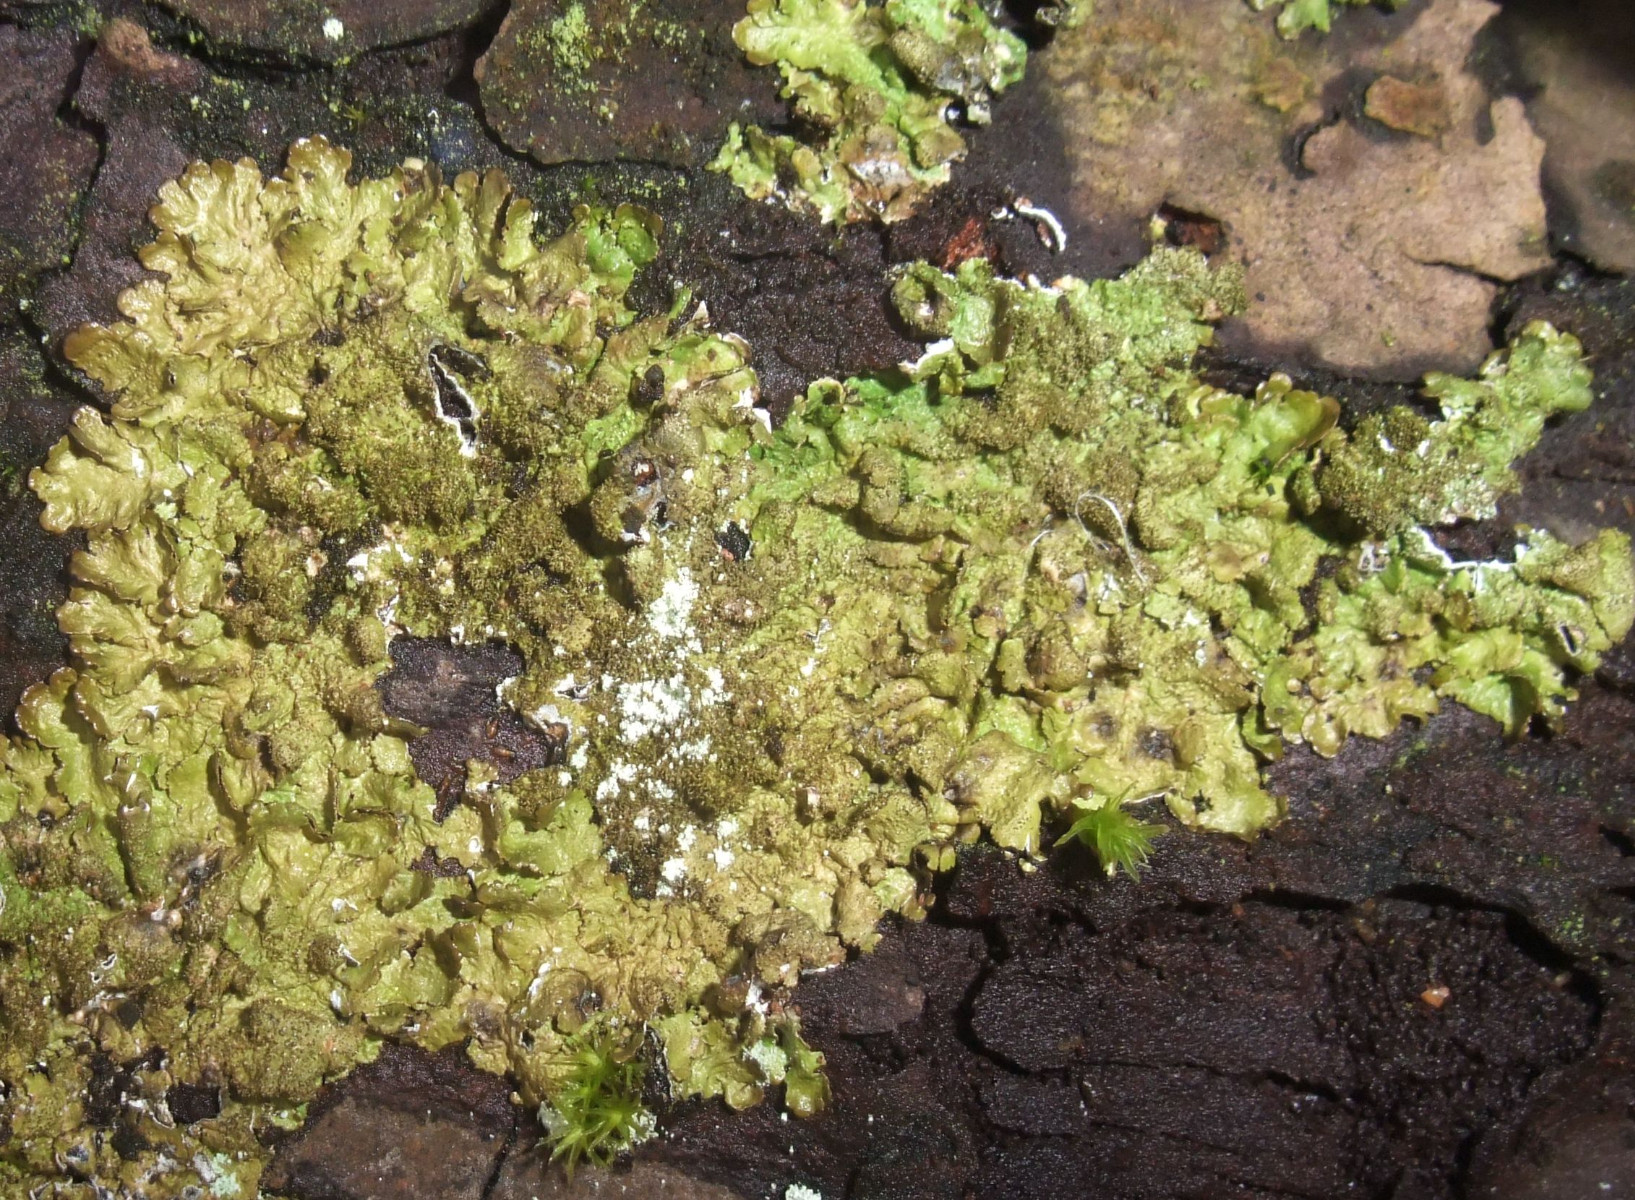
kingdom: Fungi
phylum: Ascomycota
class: Lecanoromycetes
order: Lecanorales
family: Parmeliaceae
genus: Melanelixia
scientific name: Melanelixia glabratula
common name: glinsende skållav
